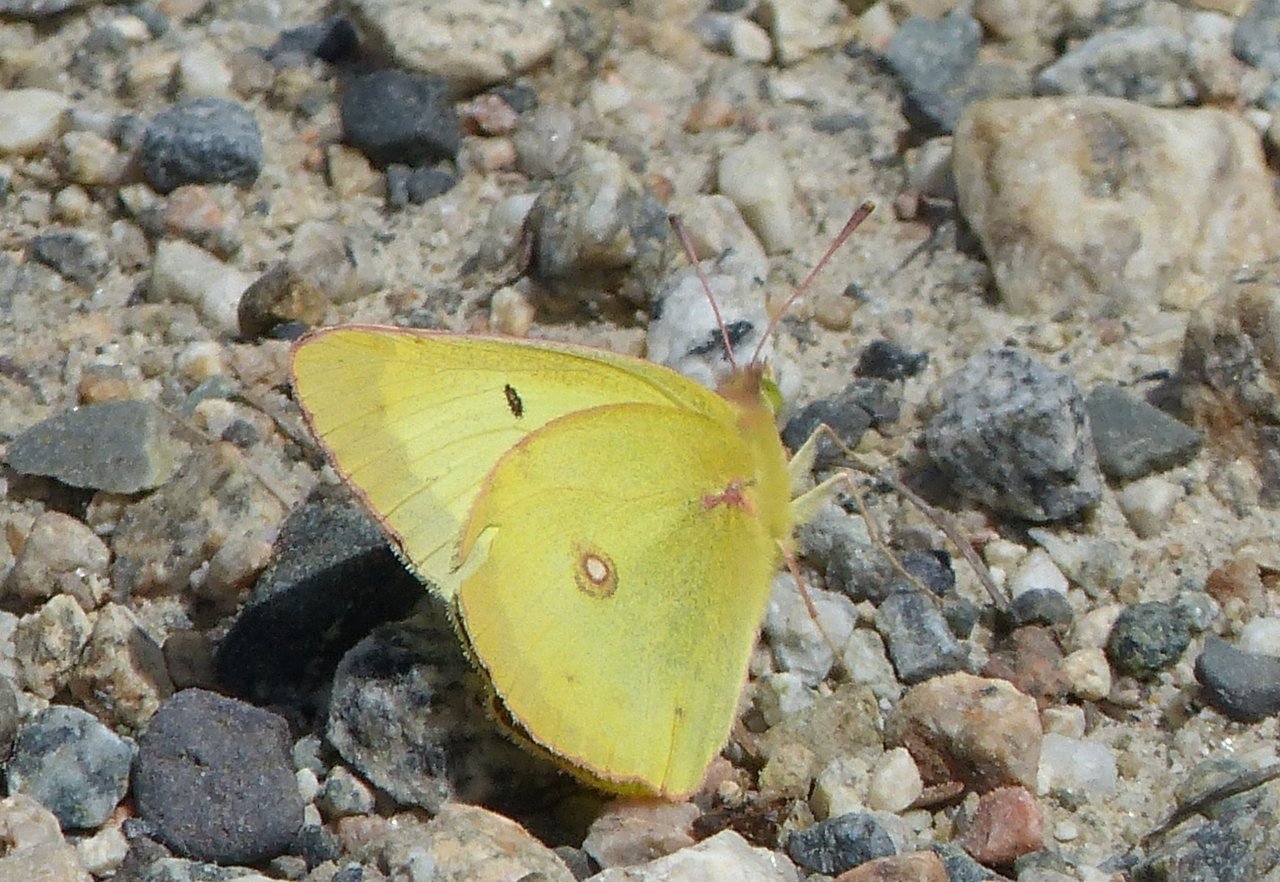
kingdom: Animalia
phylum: Arthropoda
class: Insecta
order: Lepidoptera
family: Pieridae
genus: Colias
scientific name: Colias interior
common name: Pink-edged Sulphur
